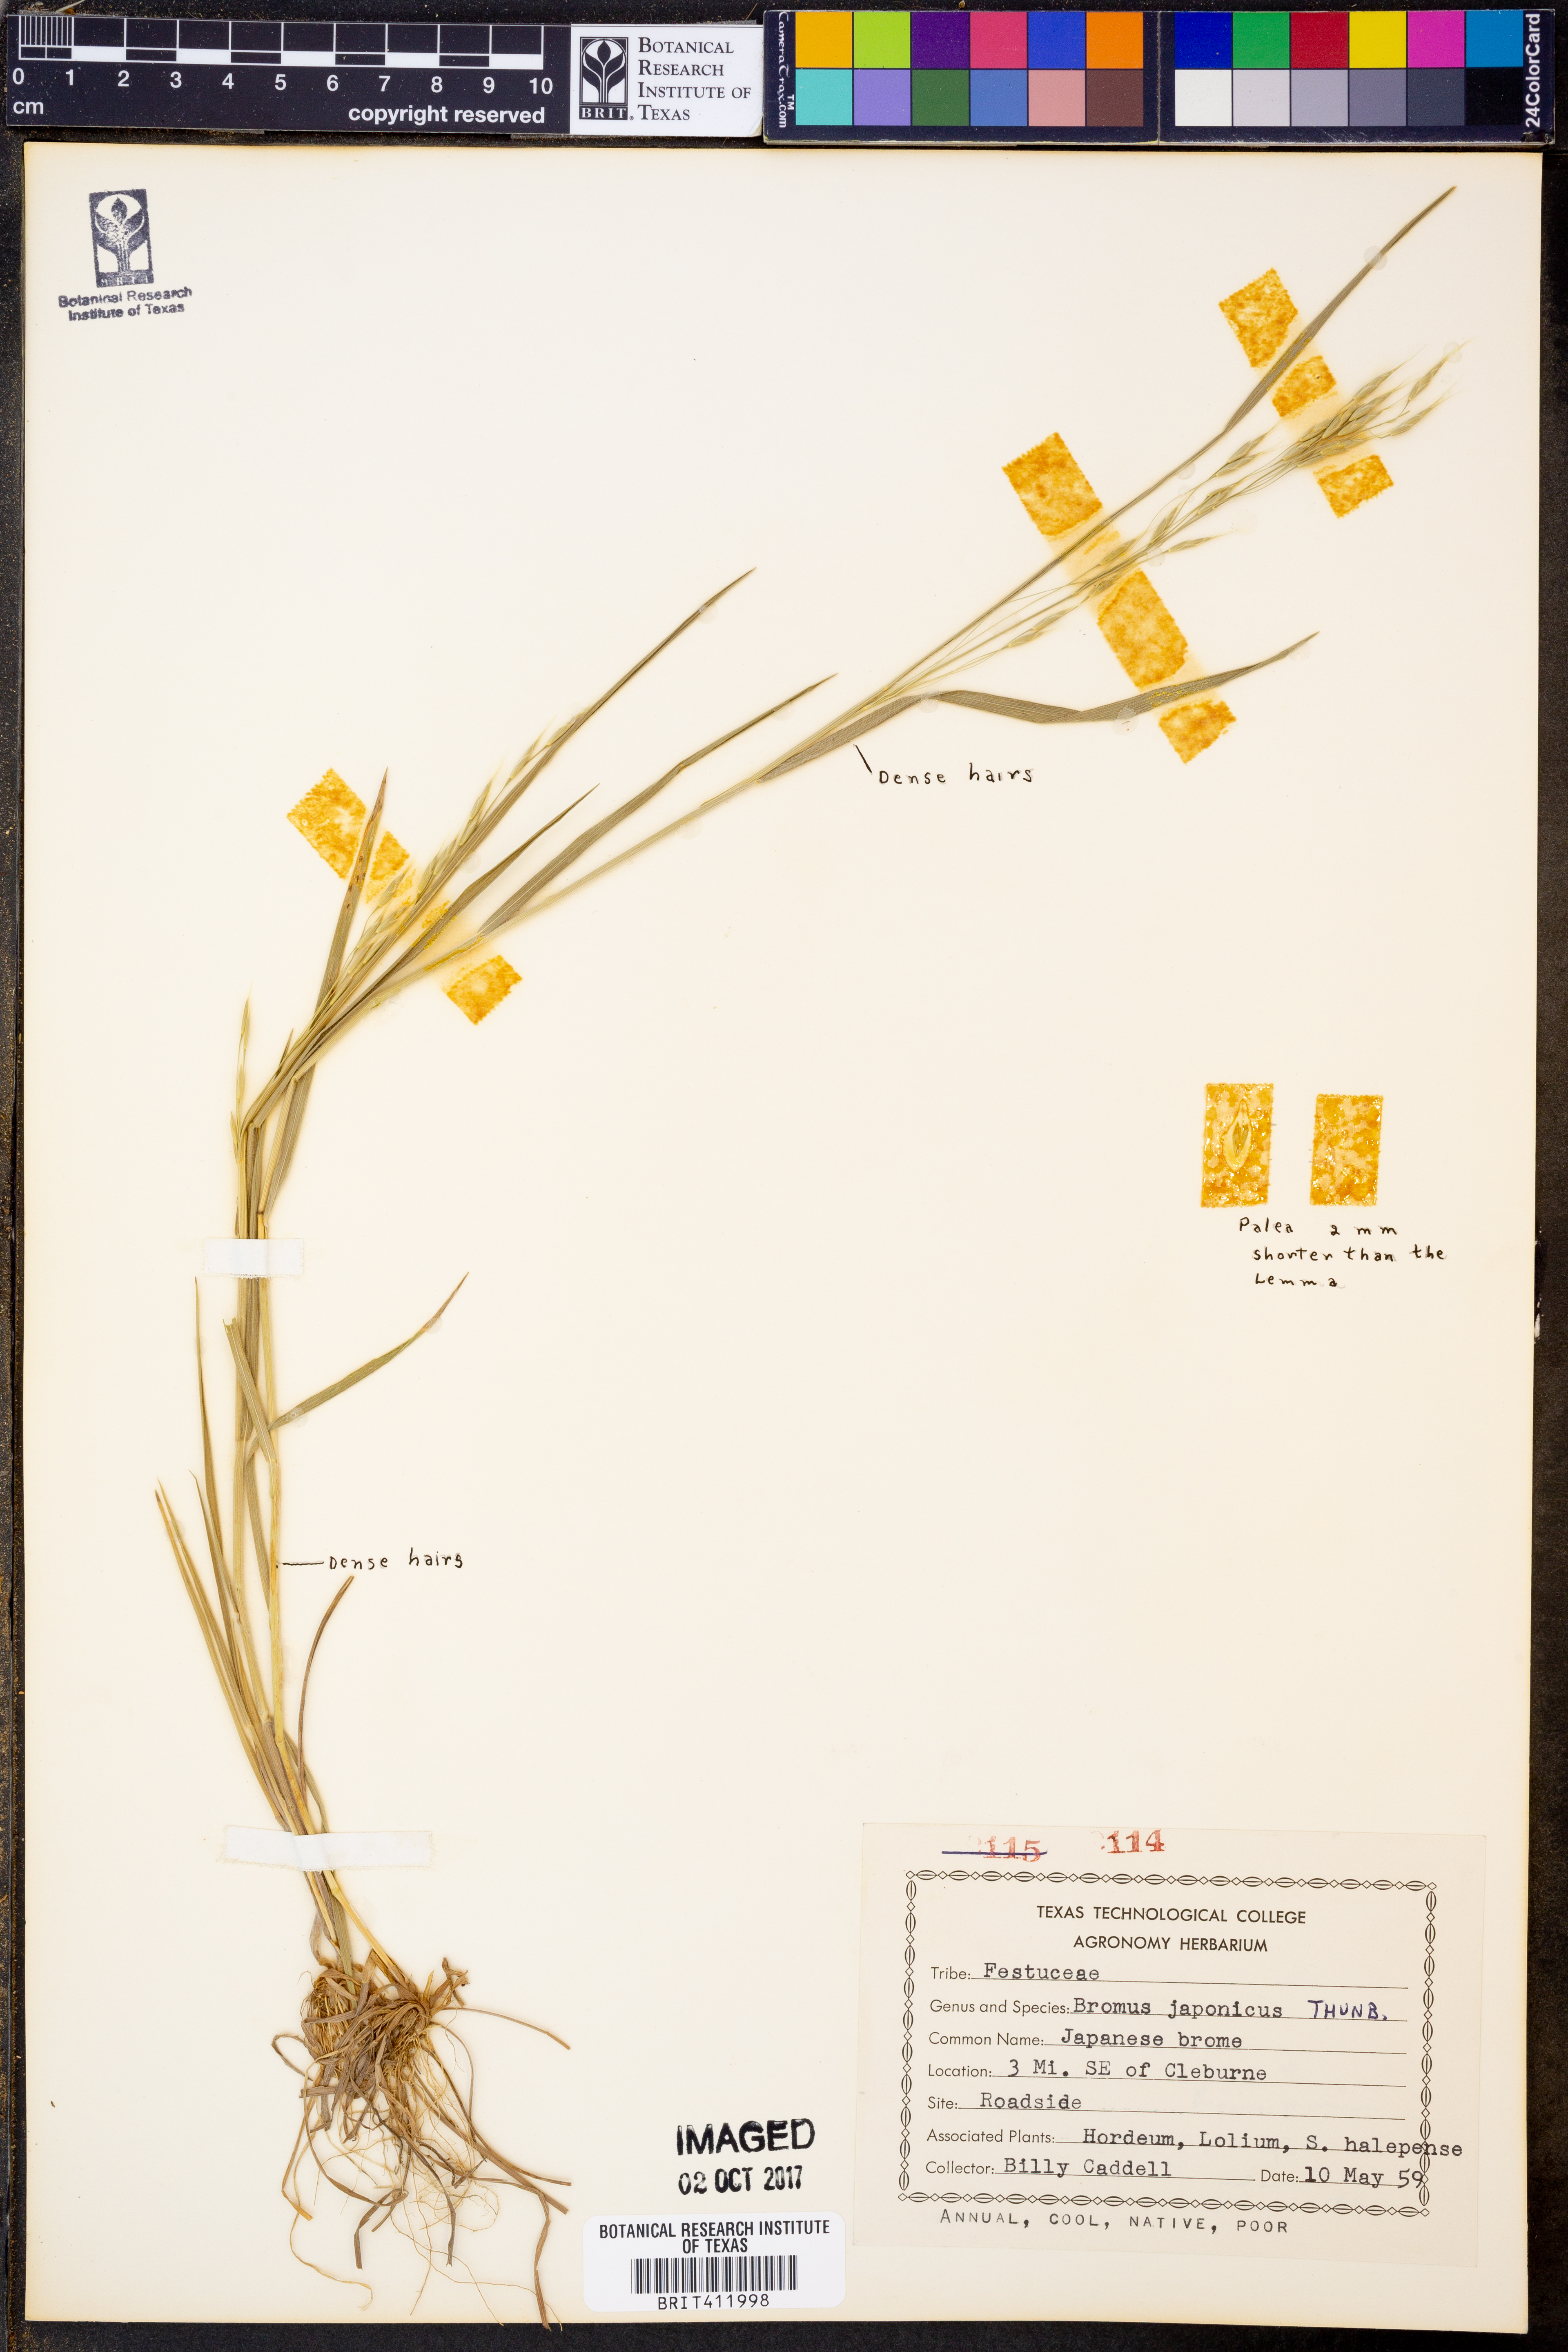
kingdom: Plantae
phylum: Tracheophyta
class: Liliopsida
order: Poales
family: Poaceae
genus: Bromus
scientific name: Bromus japonicus
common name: Japanese brome
